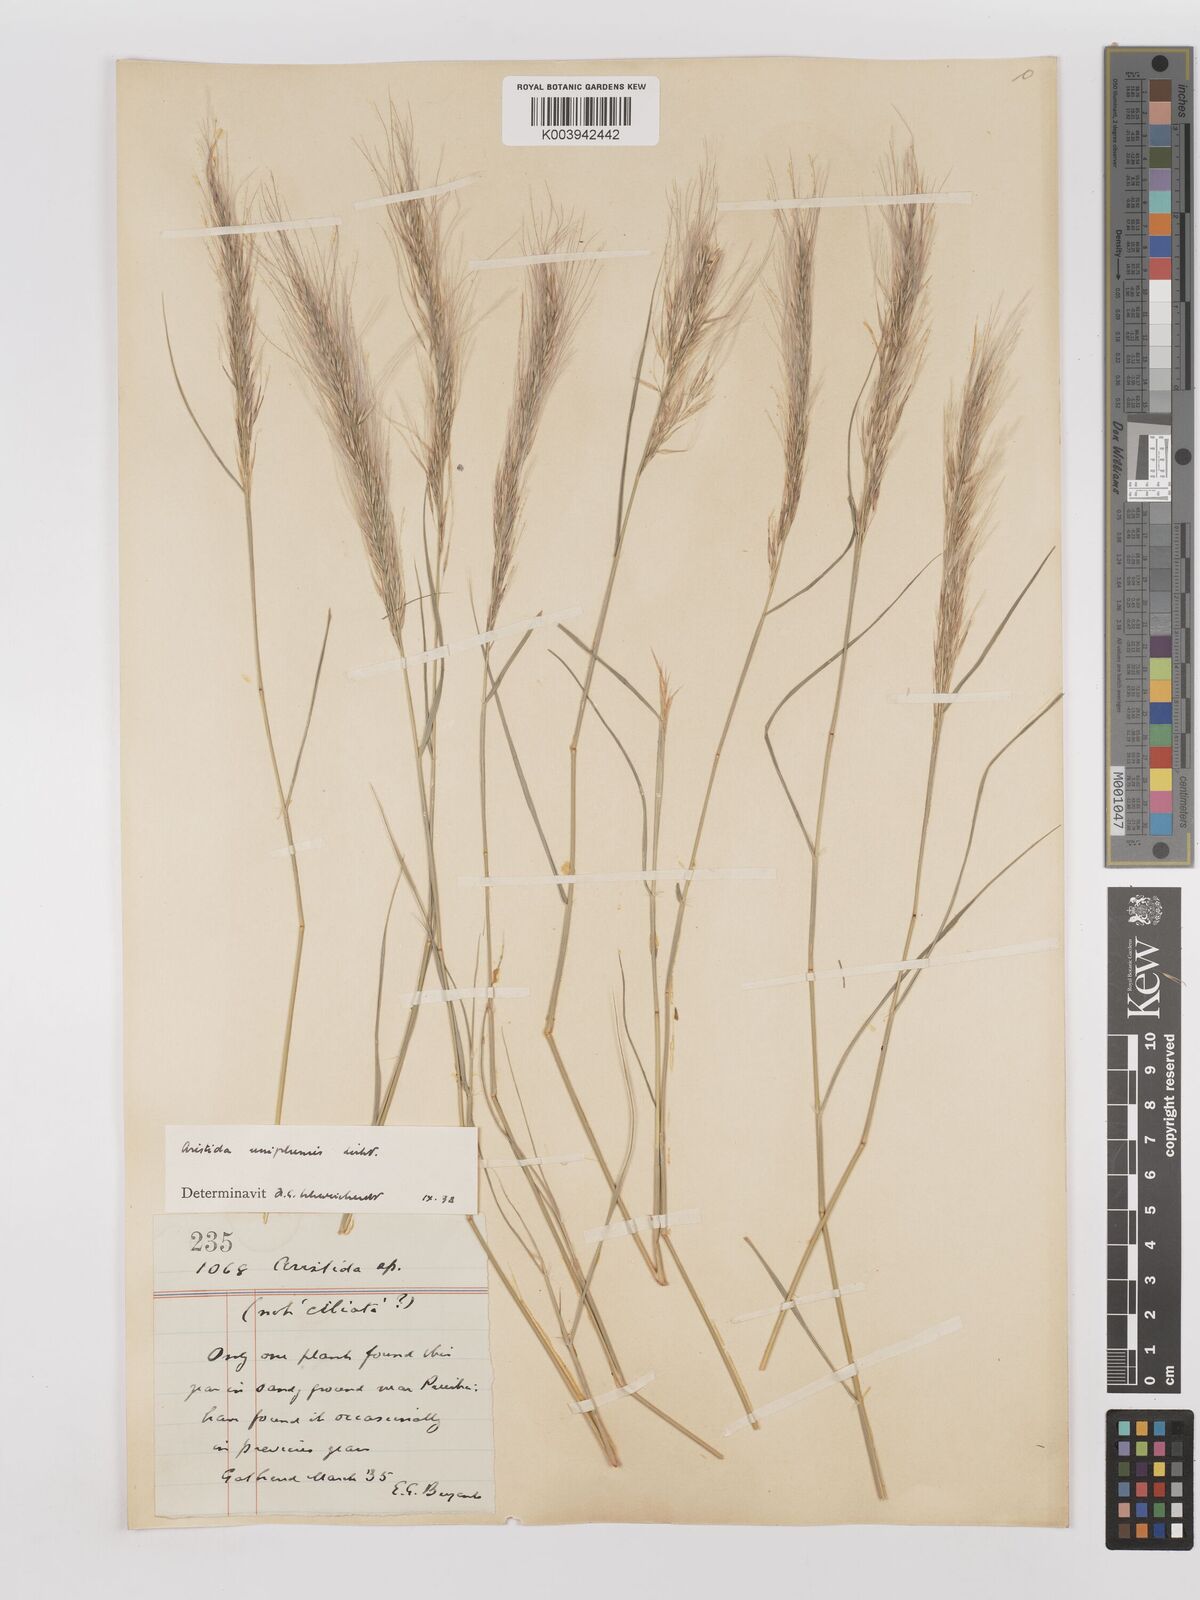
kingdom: Plantae
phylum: Tracheophyta
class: Liliopsida
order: Poales
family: Poaceae
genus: Stipagrostis
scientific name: Stipagrostis uniplumis
